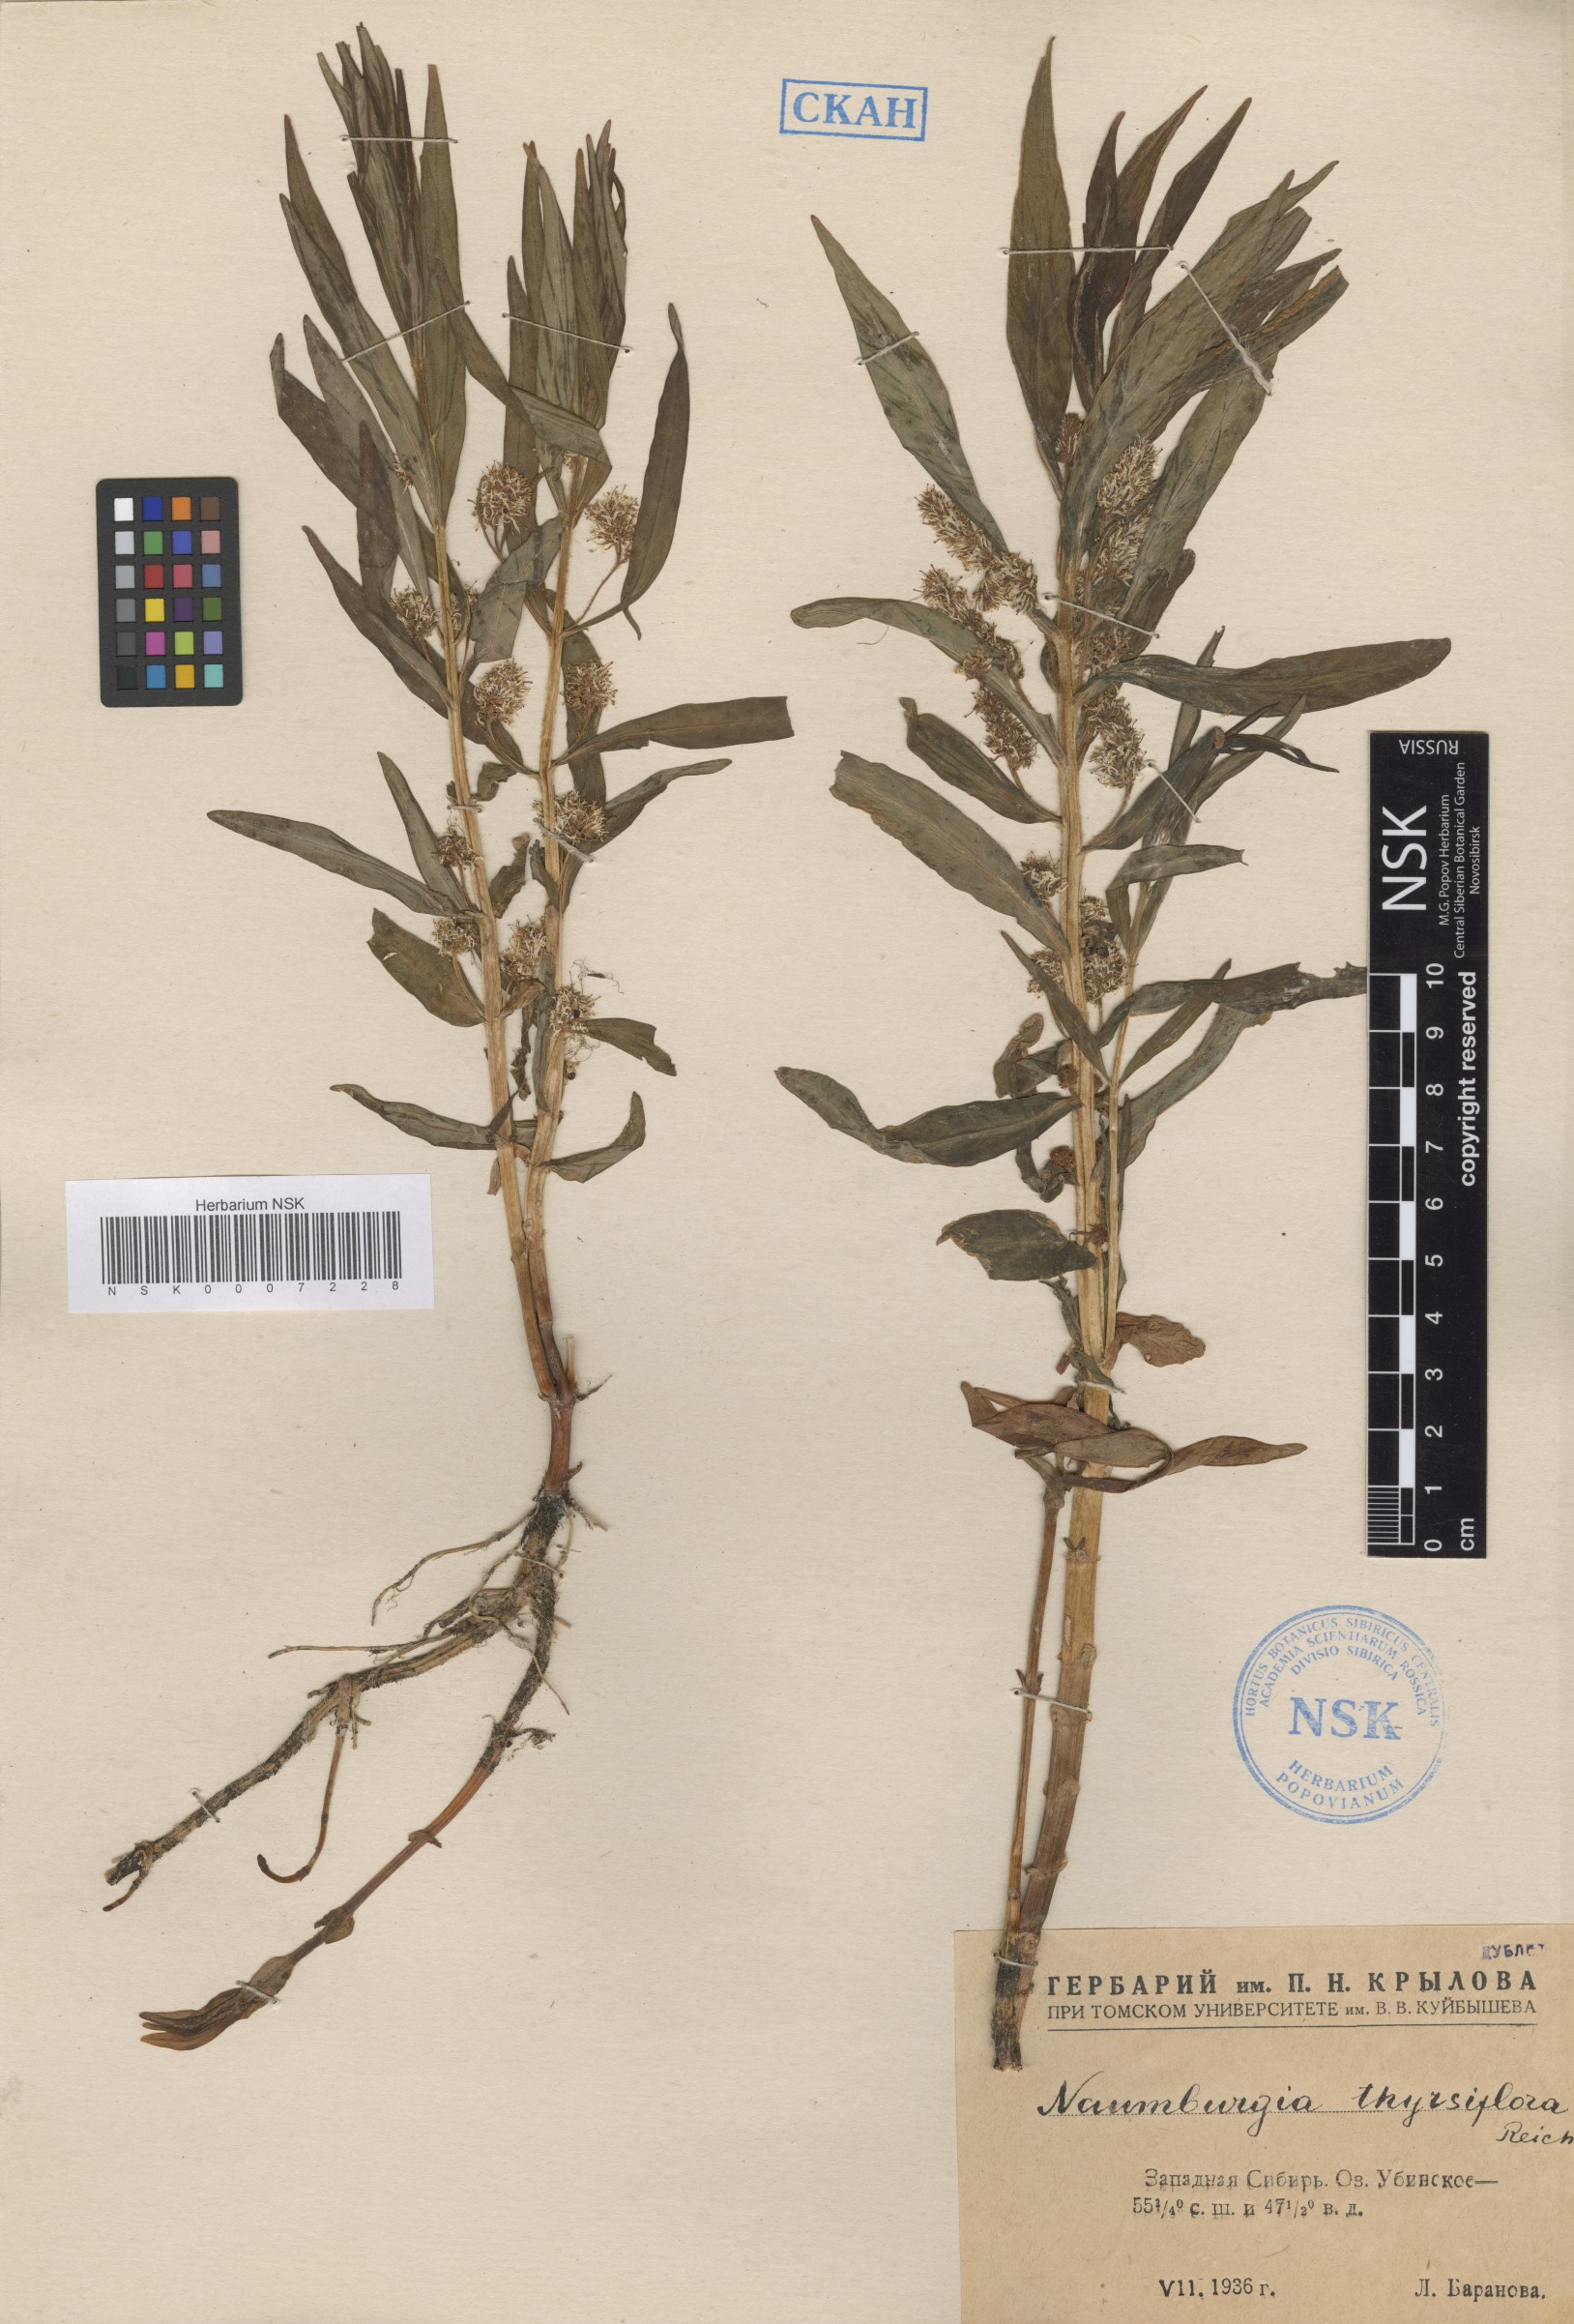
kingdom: Plantae
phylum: Tracheophyta
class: Magnoliopsida
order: Ericales
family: Primulaceae
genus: Lysimachia
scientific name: Lysimachia thyrsiflora
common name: Tufted loosestrife
